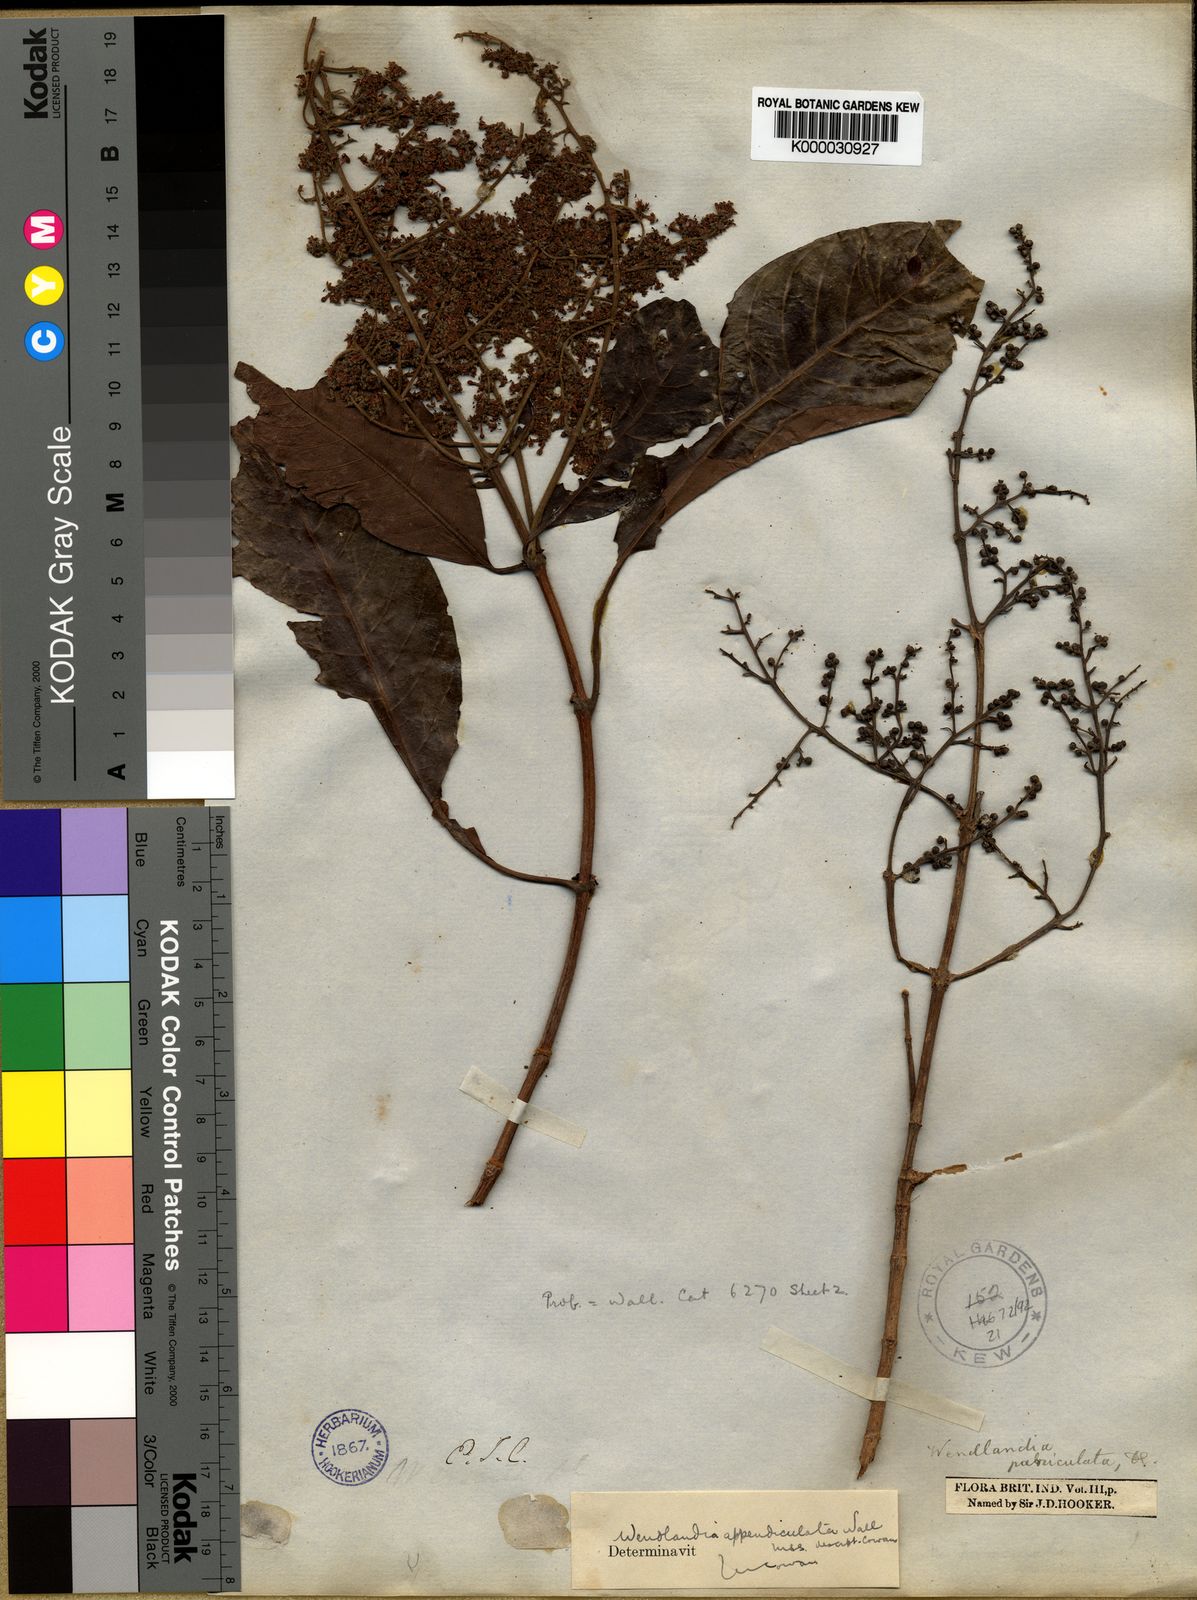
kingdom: Plantae
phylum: Tracheophyta
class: Magnoliopsida
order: Gentianales
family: Rubiaceae
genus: Wendlandia
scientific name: Wendlandia
